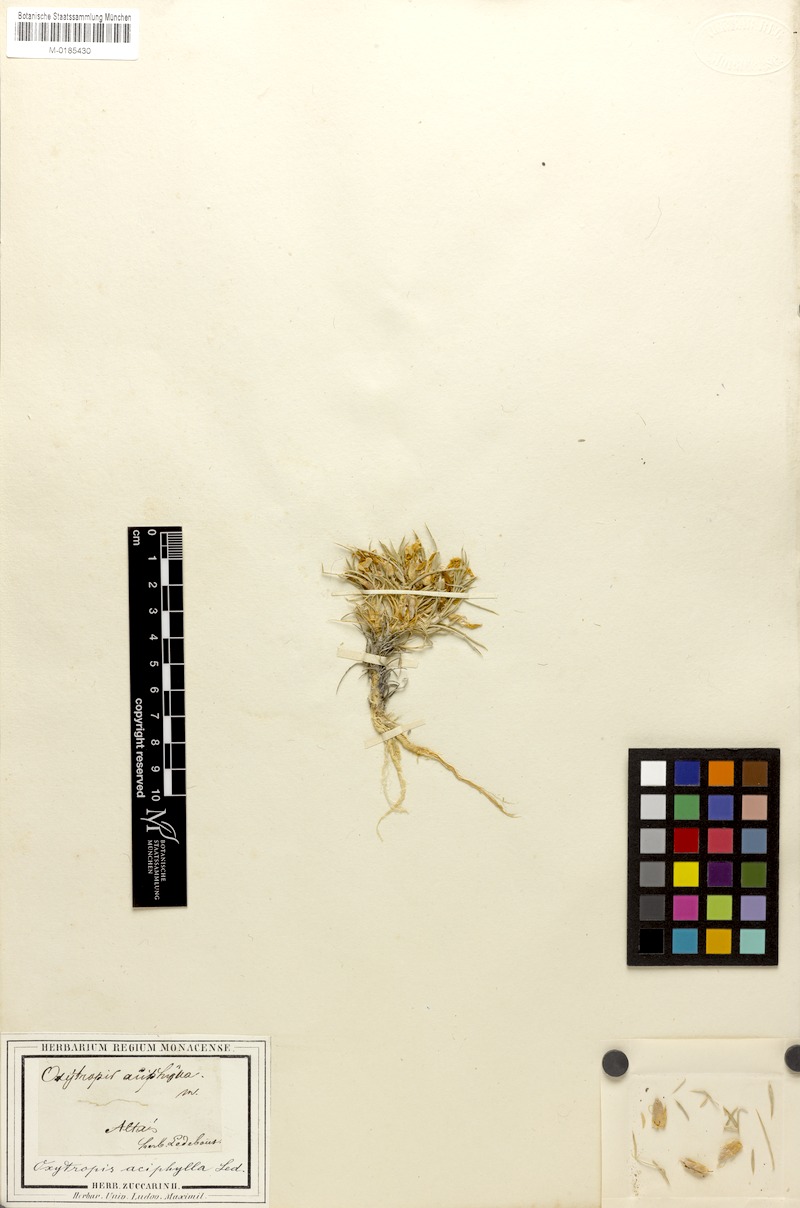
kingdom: Plantae
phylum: Tracheophyta
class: Magnoliopsida
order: Fabales
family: Fabaceae
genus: Oxytropis
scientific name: Oxytropis aciphylla
